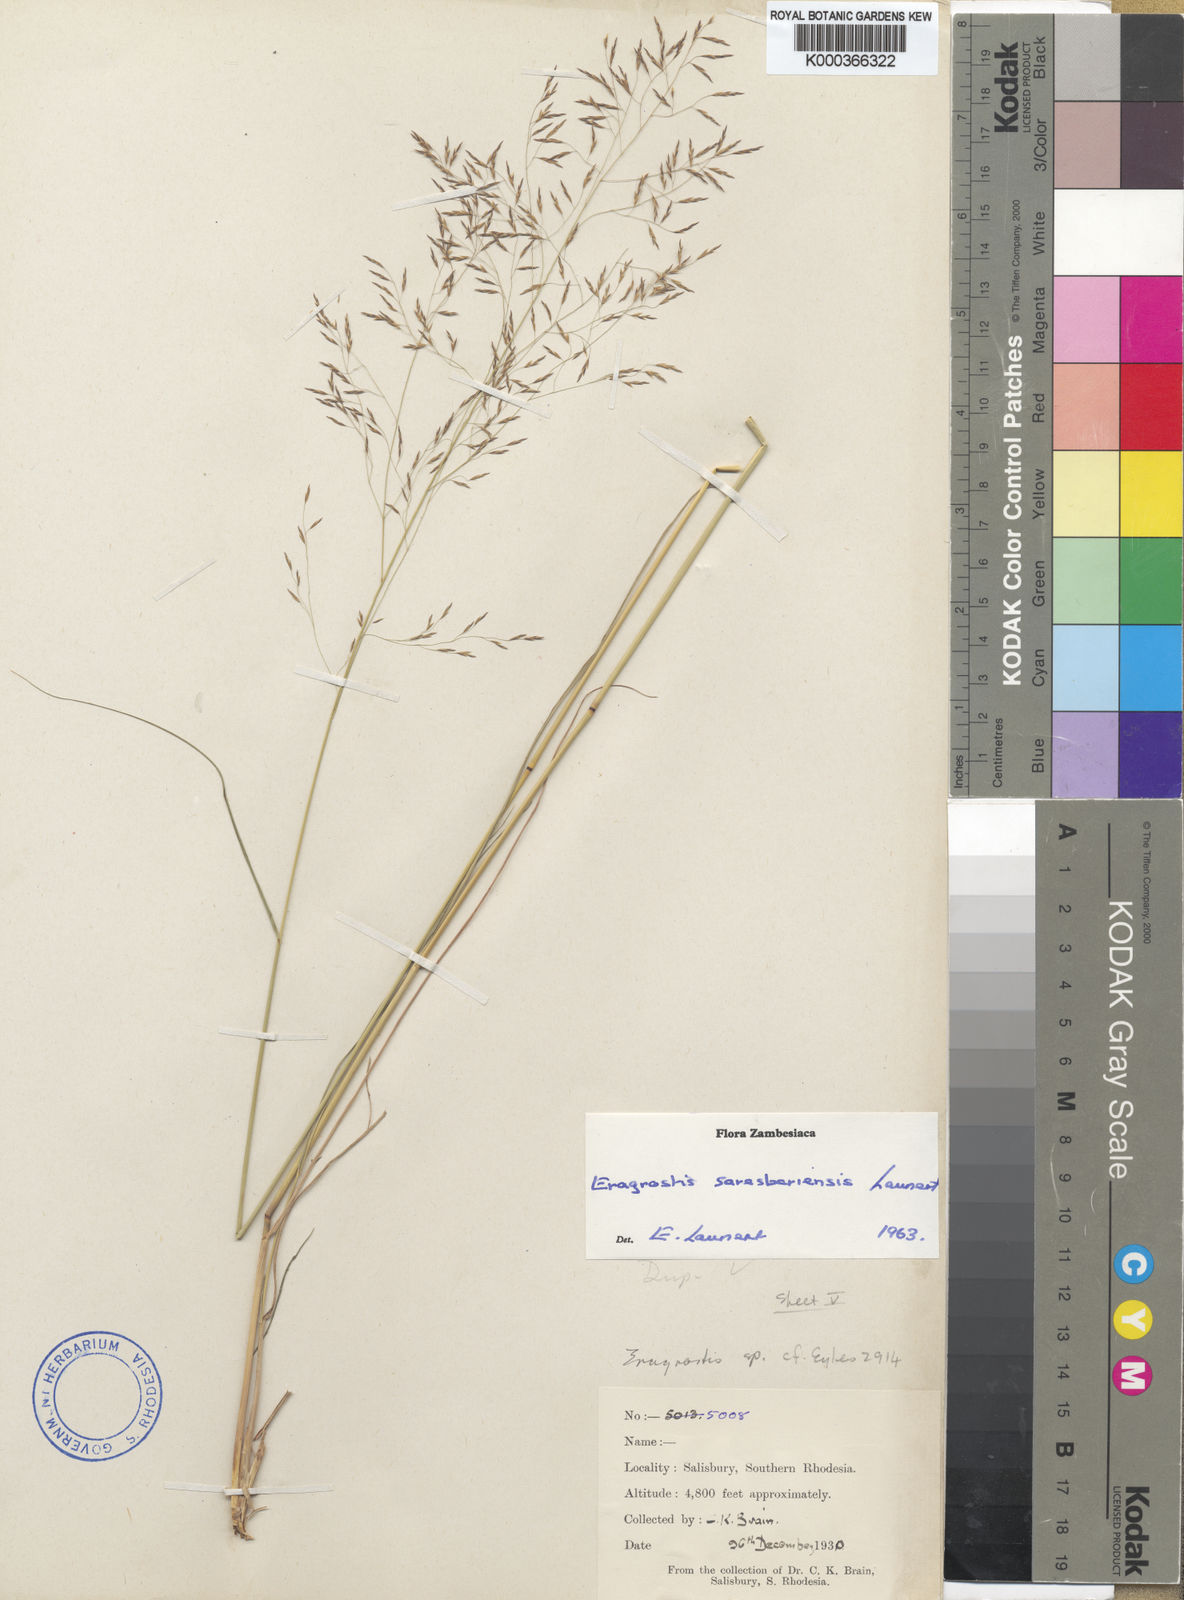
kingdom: Plantae
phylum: Tracheophyta
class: Liliopsida
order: Poales
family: Poaceae
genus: Eragrostis
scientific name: Eragrostis saresberiensis
